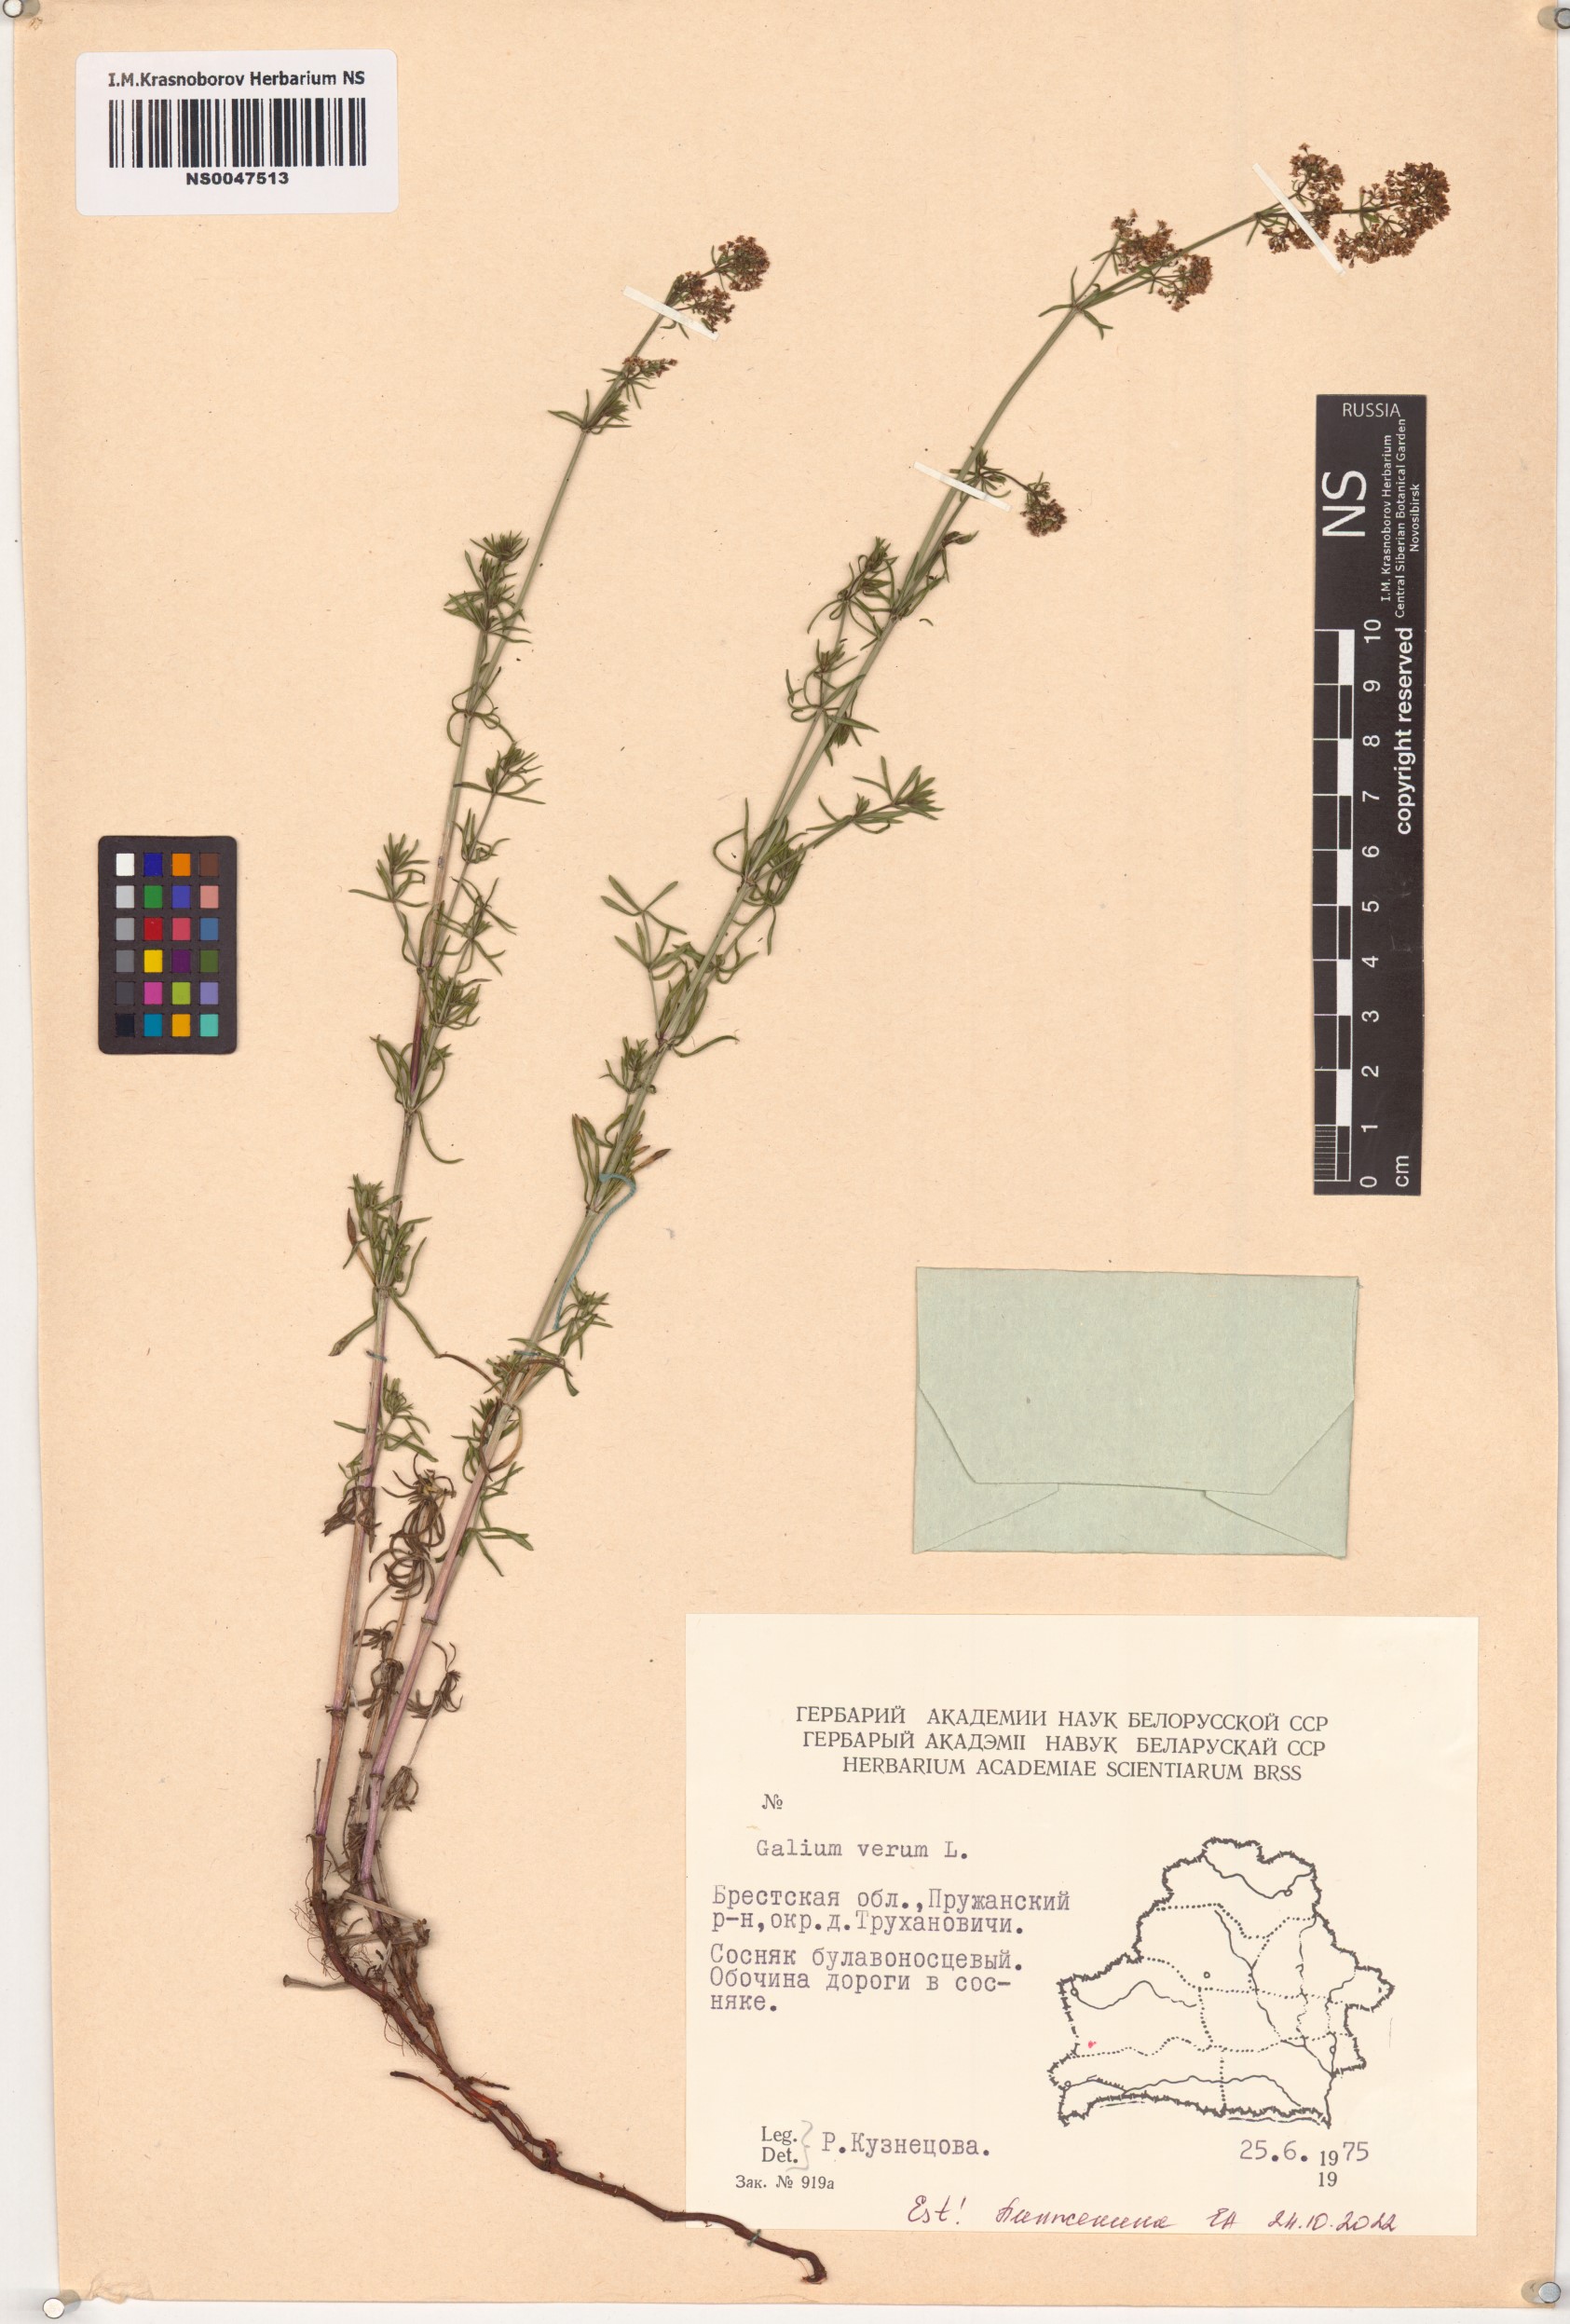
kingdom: Plantae
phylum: Tracheophyta
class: Magnoliopsida
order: Gentianales
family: Rubiaceae
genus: Galium
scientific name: Galium verum
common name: Lady's bedstraw
